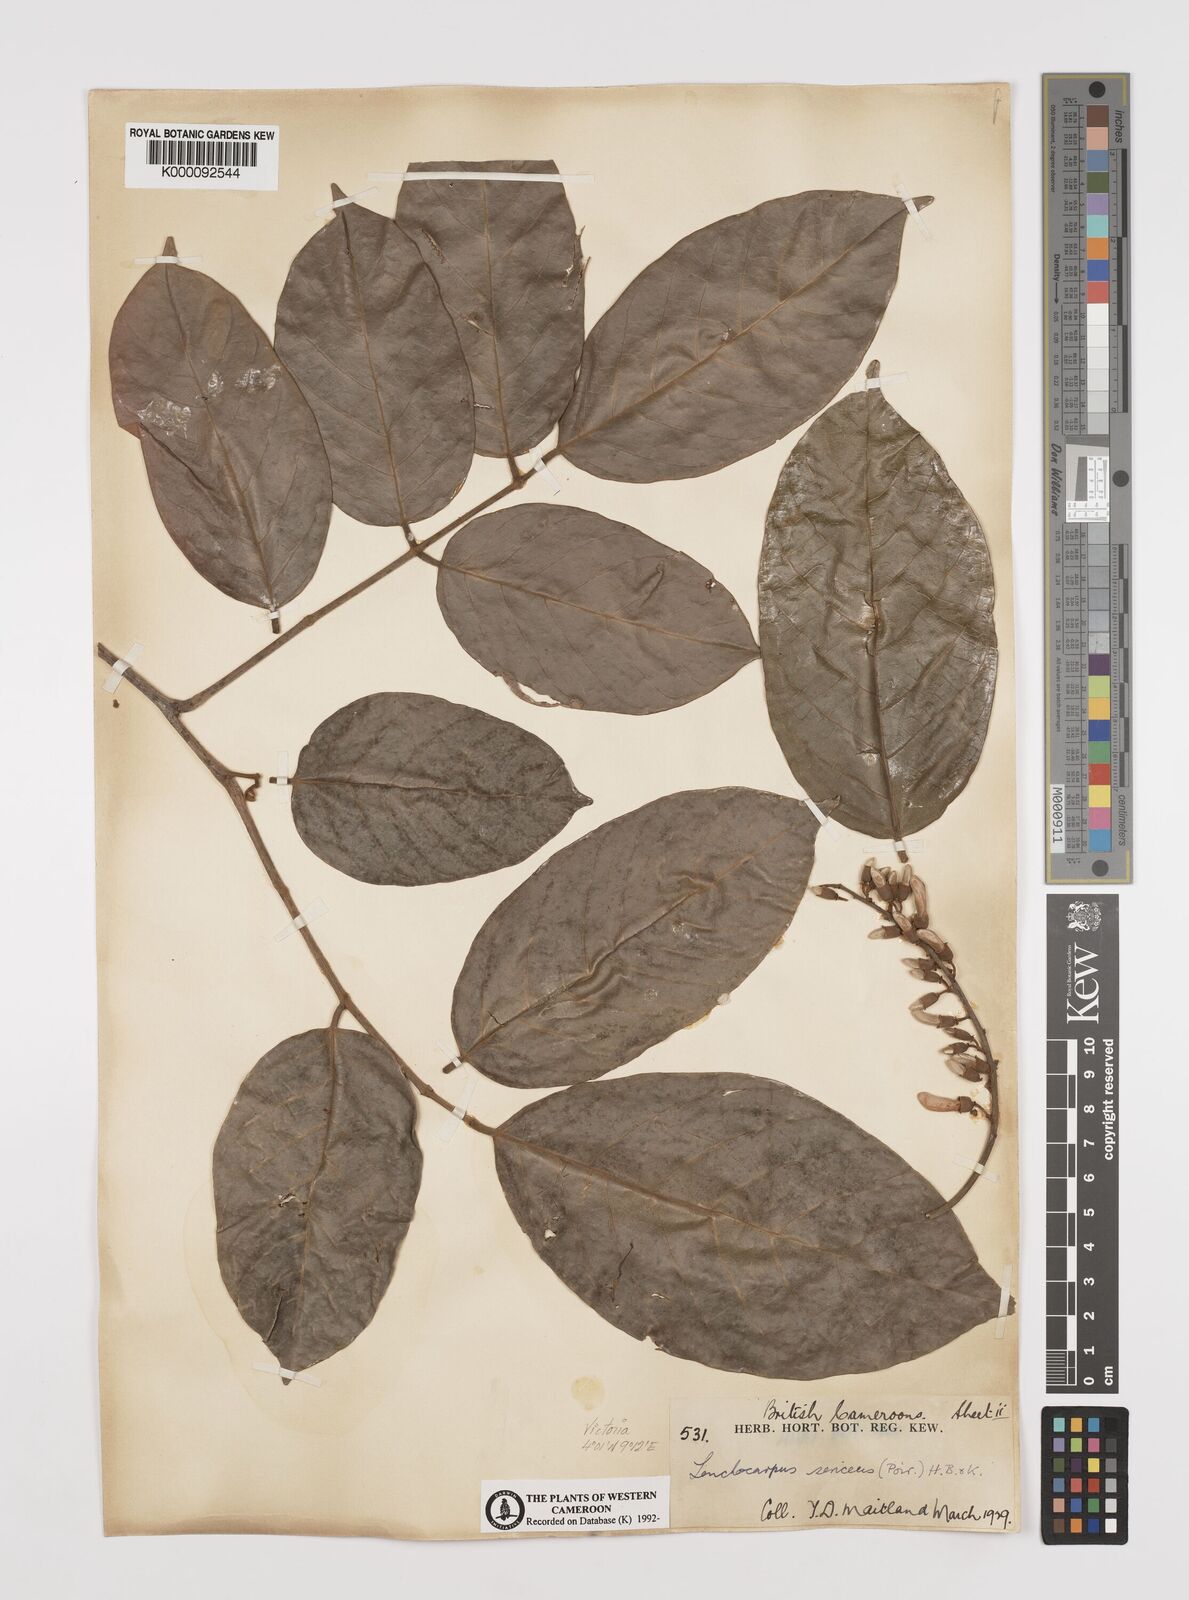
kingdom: Plantae
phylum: Tracheophyta
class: Magnoliopsida
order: Fabales
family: Fabaceae
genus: Lonchocarpus
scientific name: Lonchocarpus
